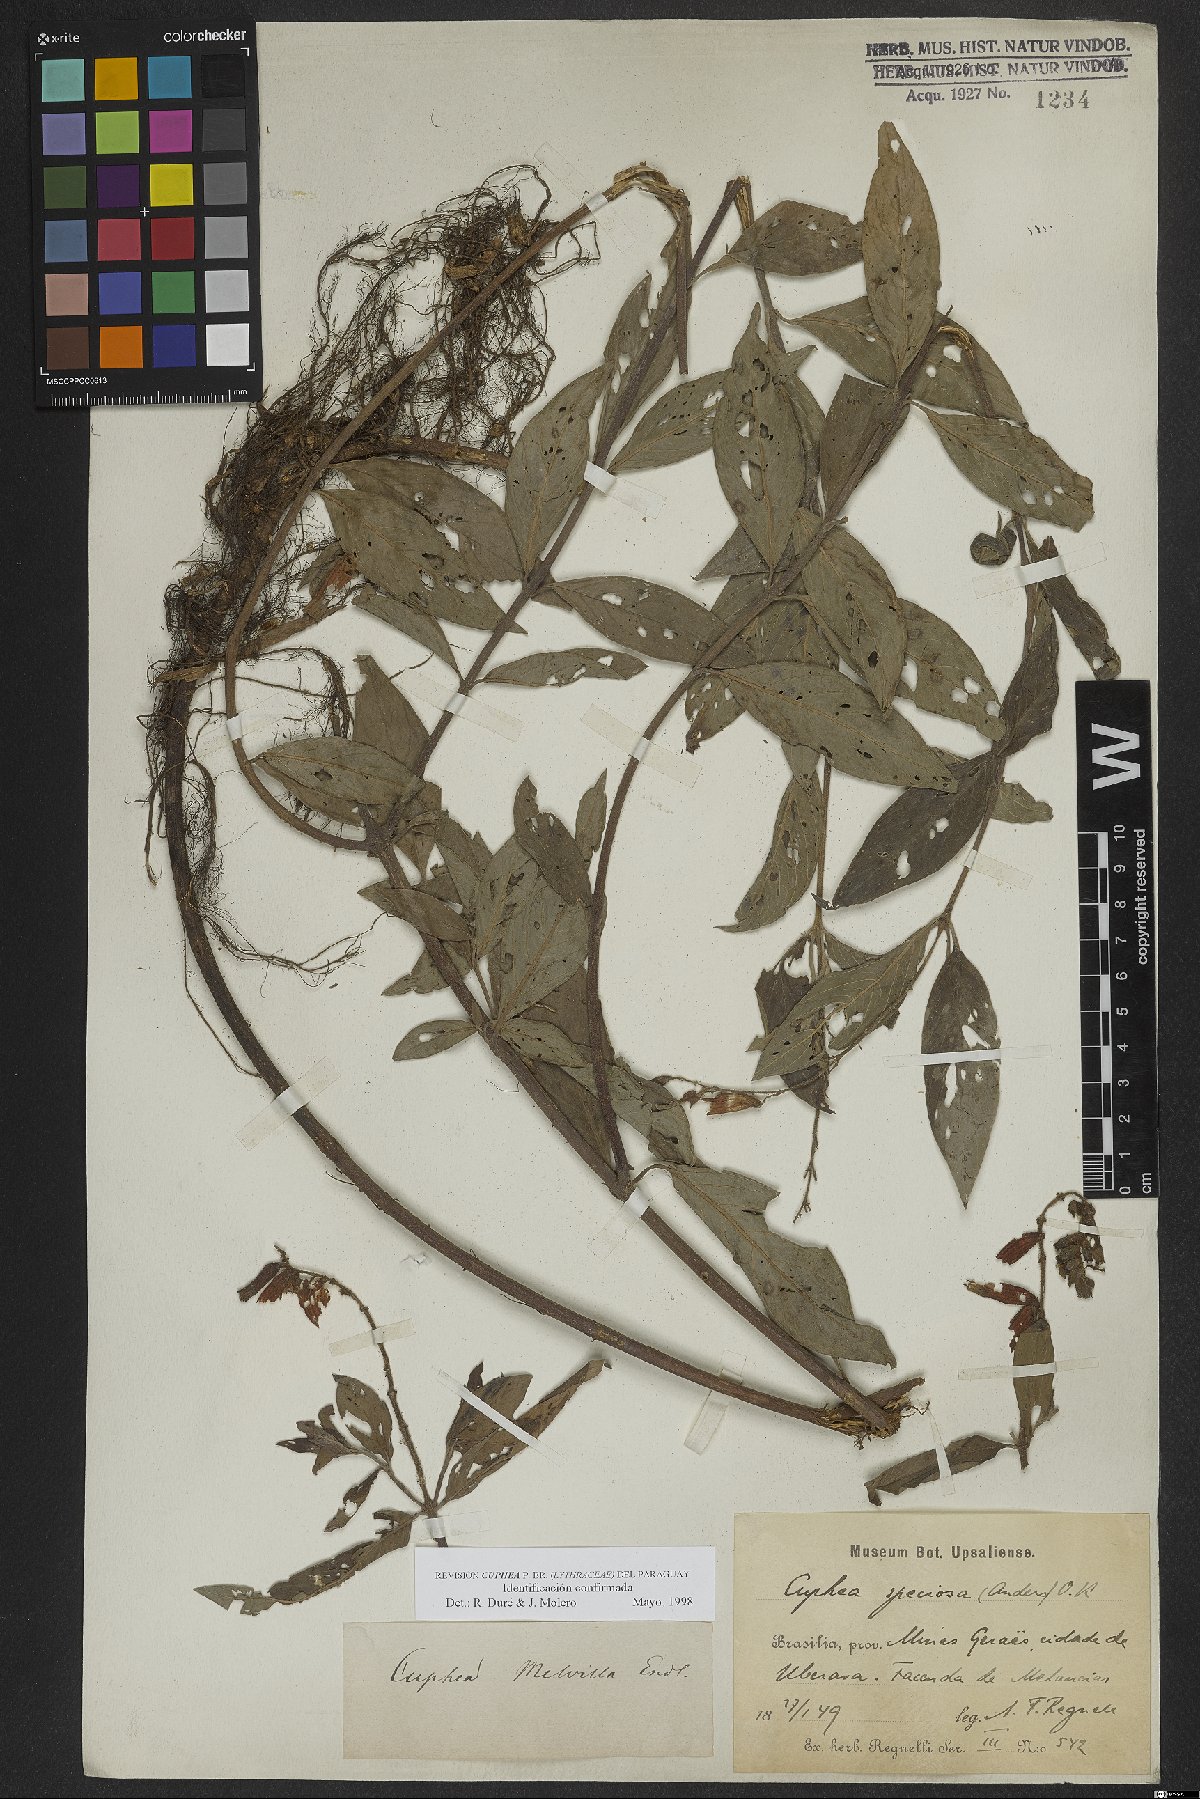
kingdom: Plantae
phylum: Tracheophyta
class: Magnoliopsida
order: Myrtales
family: Lythraceae
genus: Cuphea
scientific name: Cuphea melvilla
